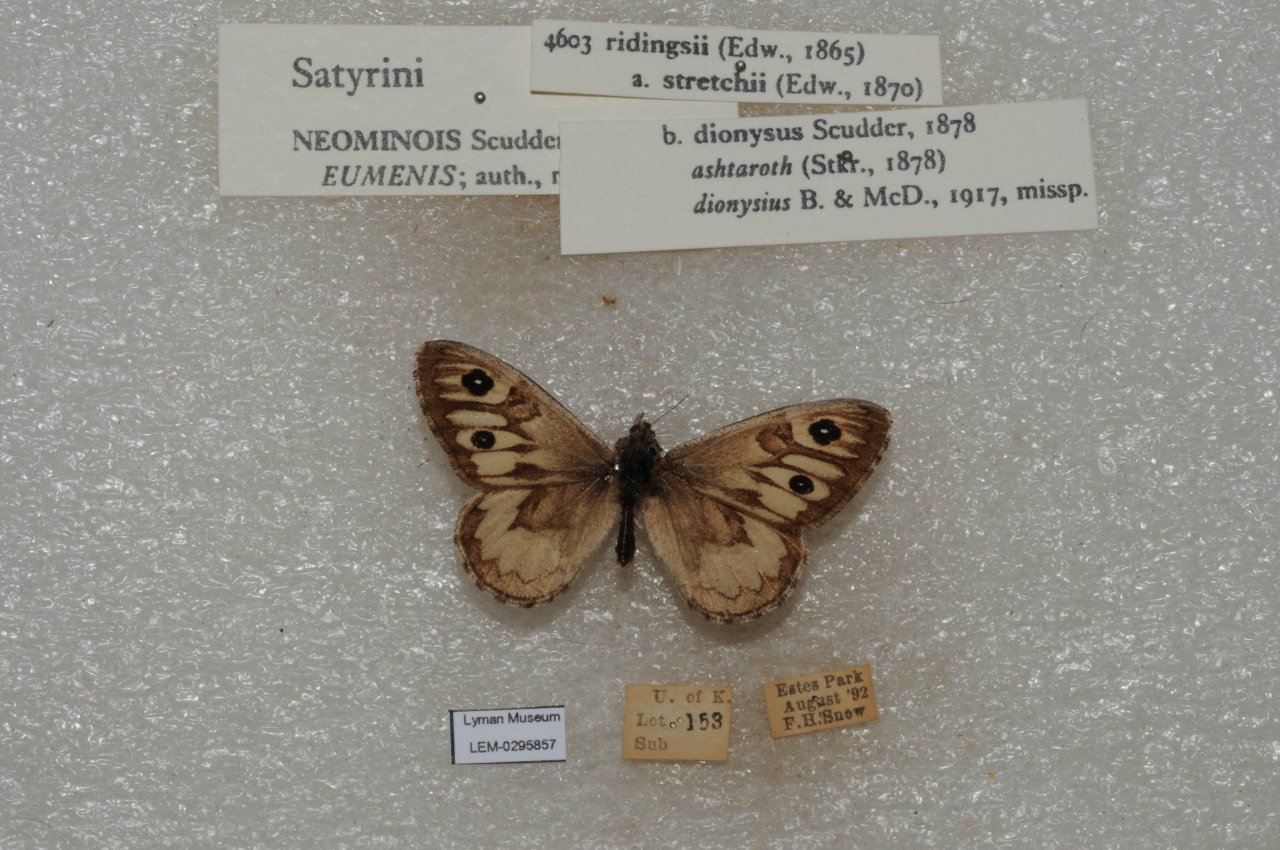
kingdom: Animalia
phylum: Arthropoda
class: Insecta
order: Lepidoptera
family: Nymphalidae
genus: Neominois
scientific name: Neominois ridingsii
